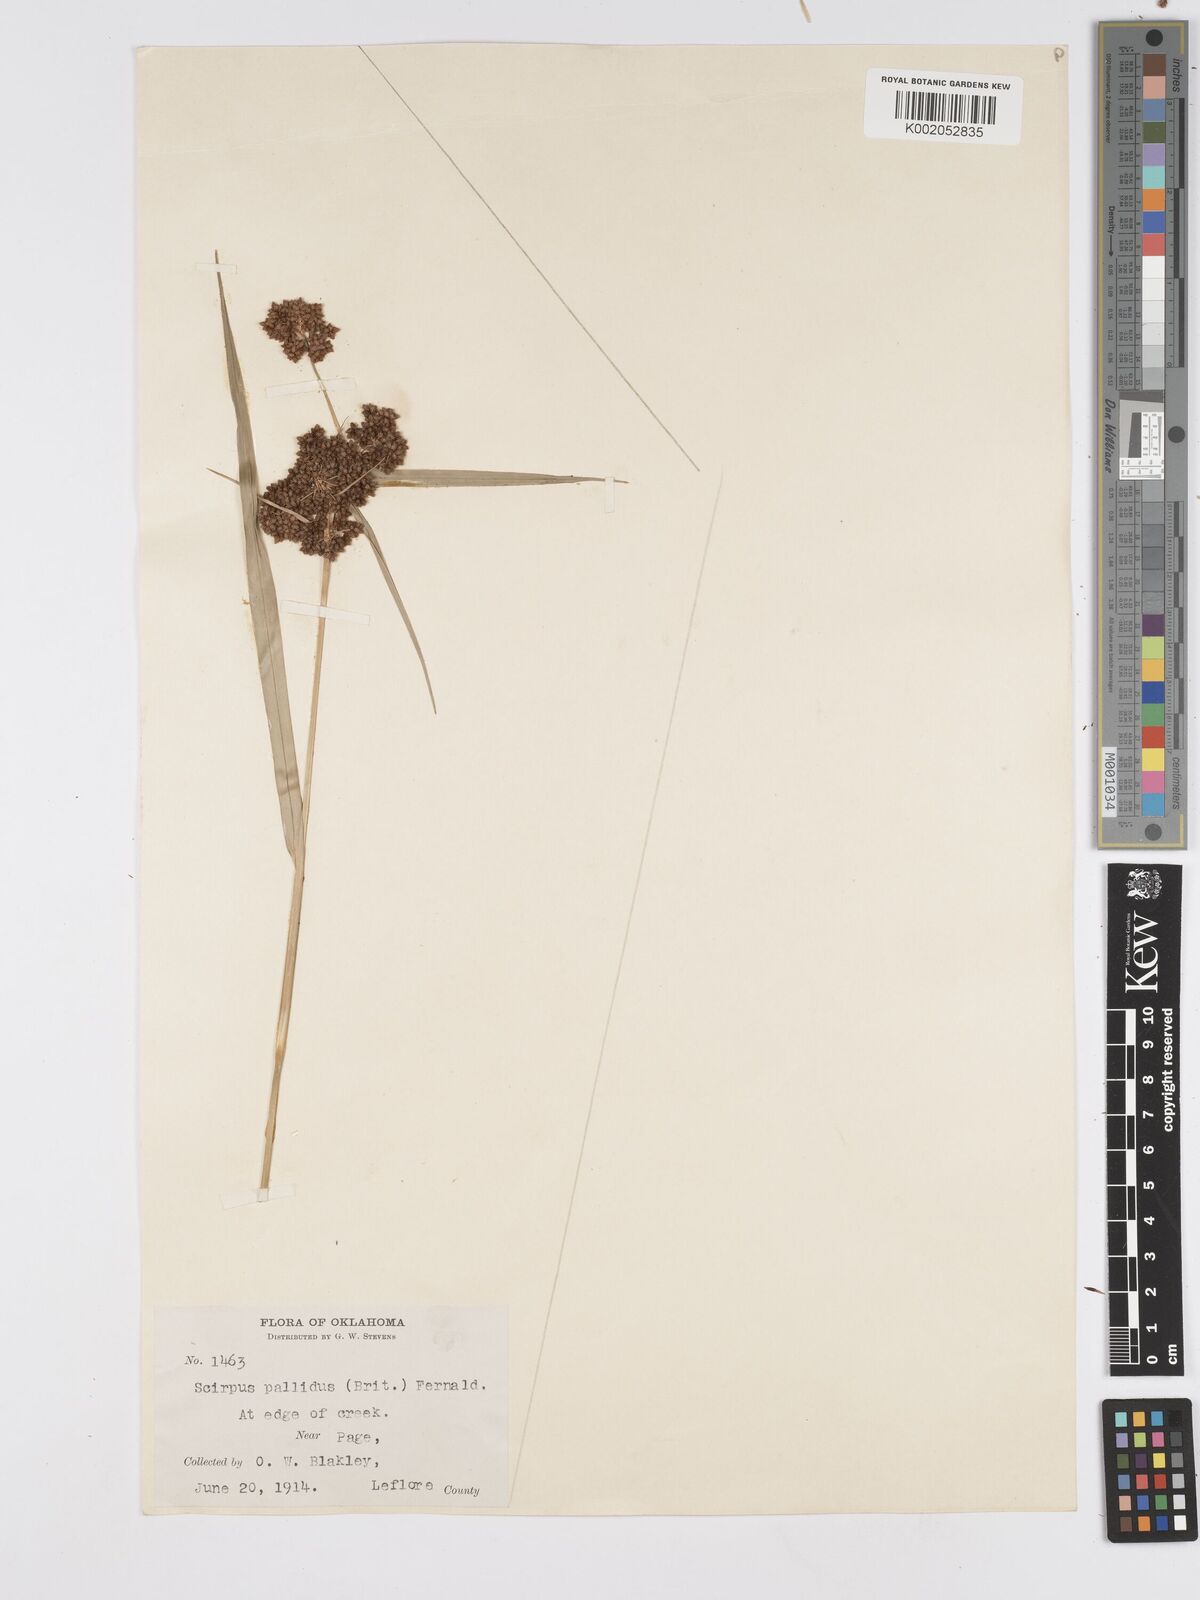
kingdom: Plantae
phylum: Tracheophyta
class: Liliopsida
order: Poales
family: Cyperaceae
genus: Scirpus
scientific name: Scirpus pallidus
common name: Cloaked bulrush
